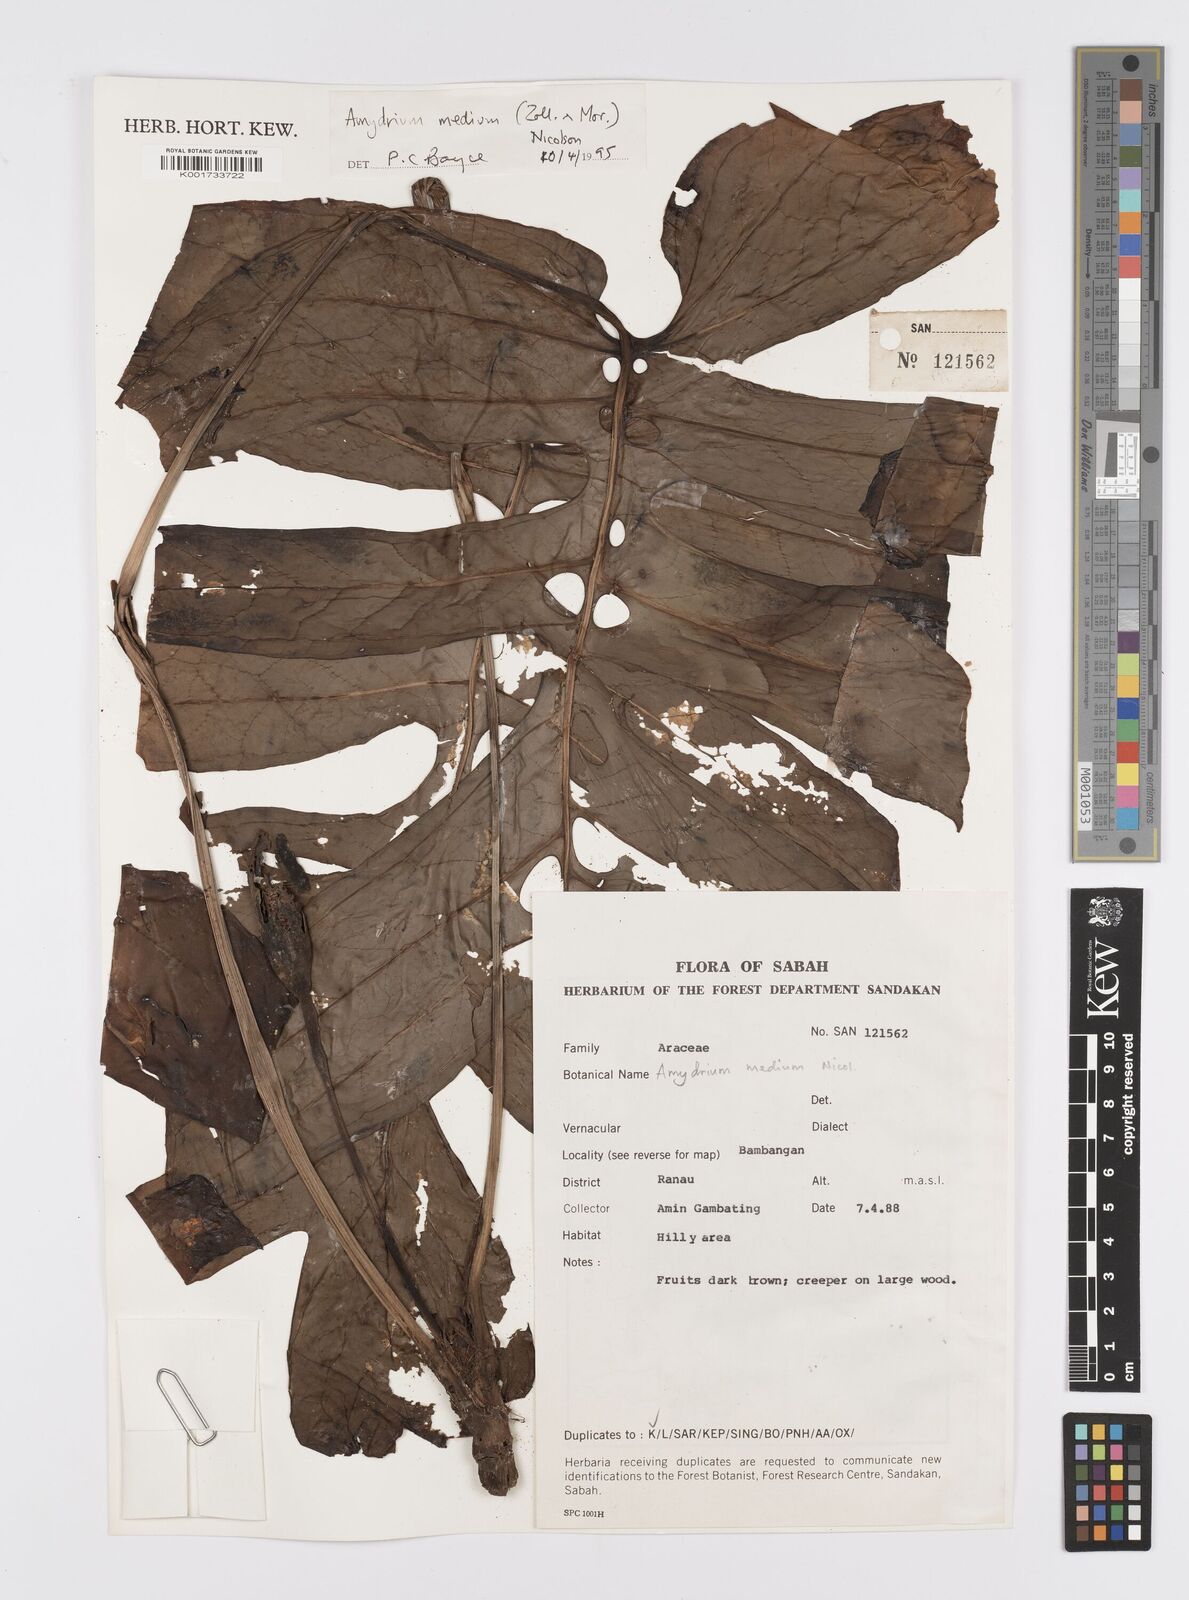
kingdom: Plantae
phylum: Tracheophyta
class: Liliopsida
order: Alismatales
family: Araceae
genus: Amydrium
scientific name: Amydrium medium
